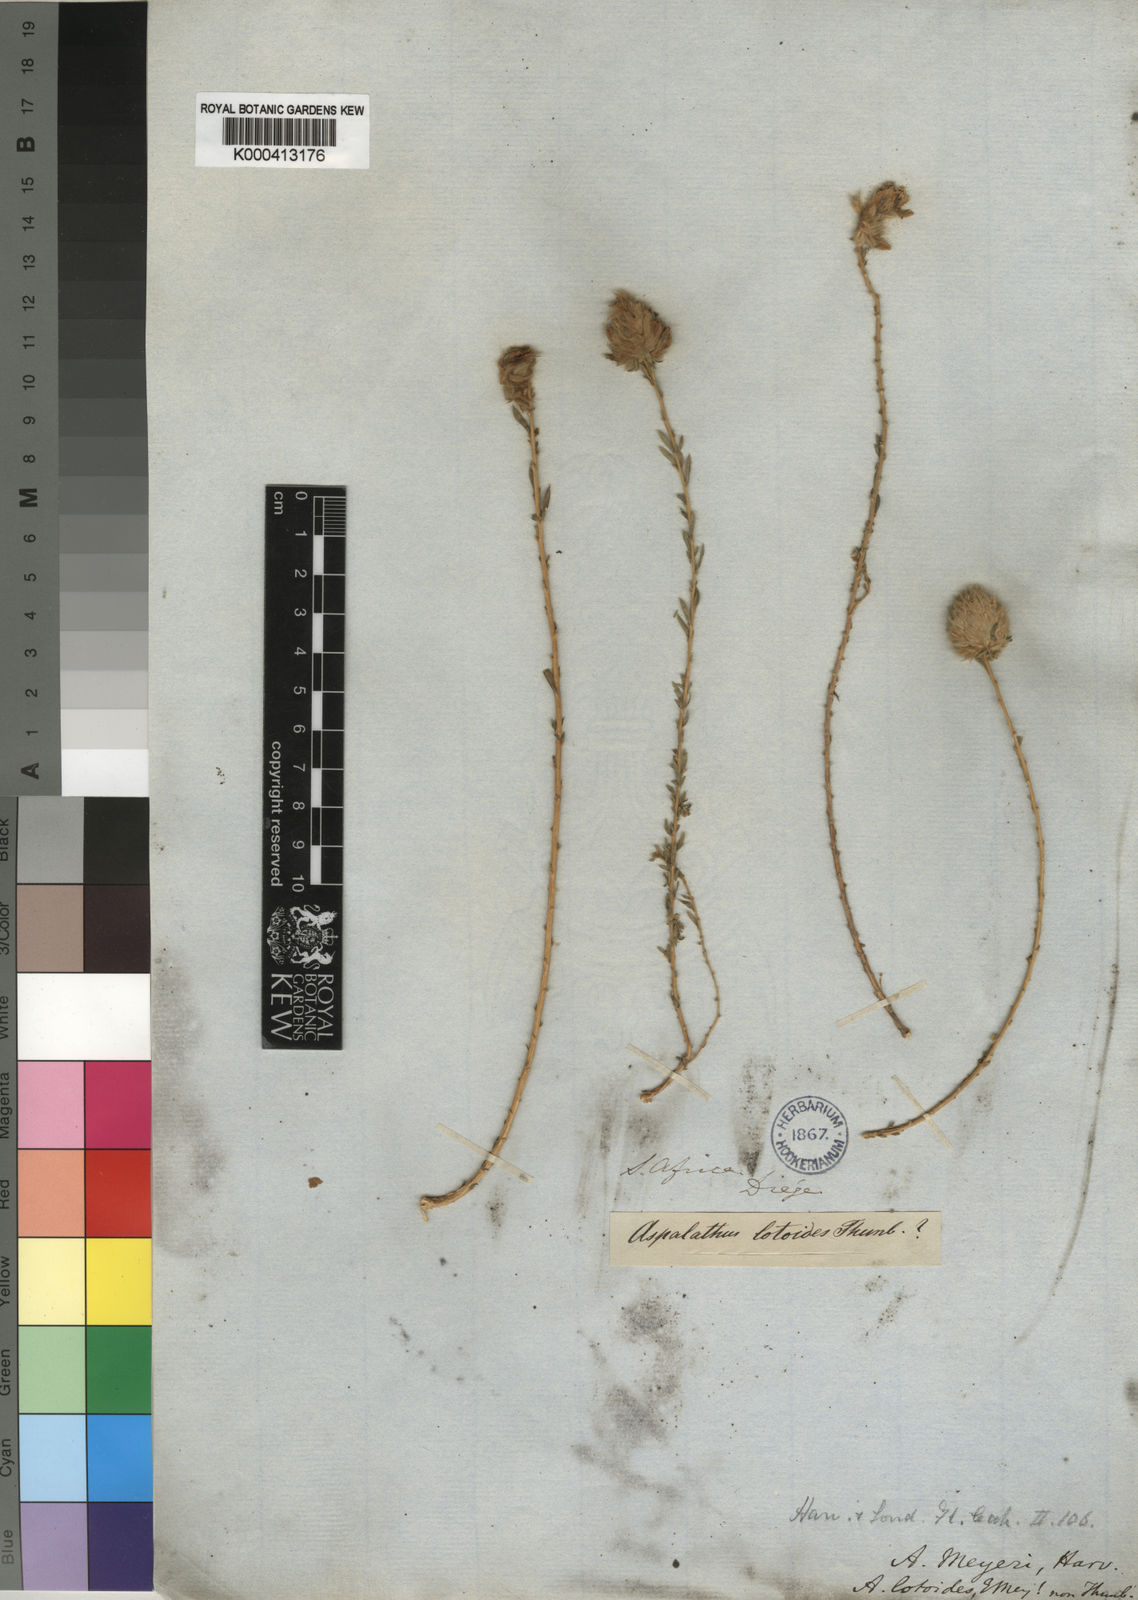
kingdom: Plantae
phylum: Tracheophyta
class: Magnoliopsida
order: Fabales
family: Fabaceae
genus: Aspalathus
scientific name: Aspalathus quinquefolia
